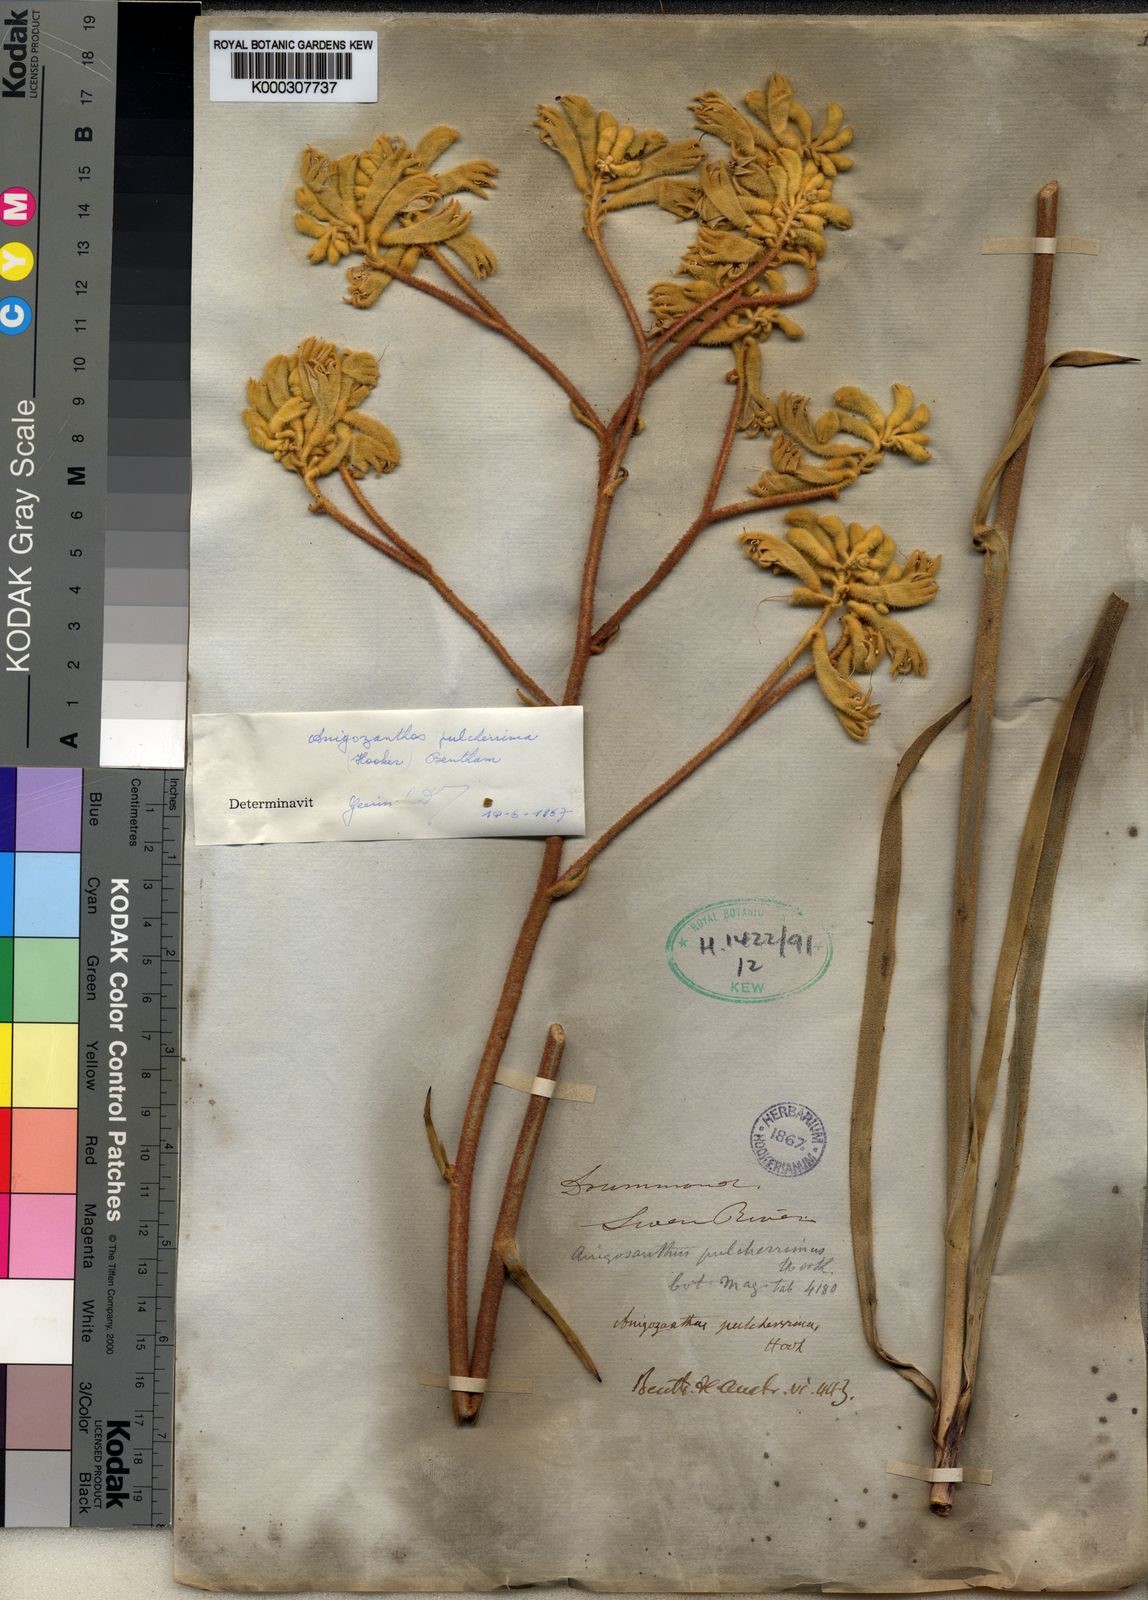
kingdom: Plantae
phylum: Tracheophyta
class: Liliopsida
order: Commelinales
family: Haemodoraceae
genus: Anigozanthos
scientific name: Anigozanthos pulcherrimus
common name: Yellow kangaroo-paw
